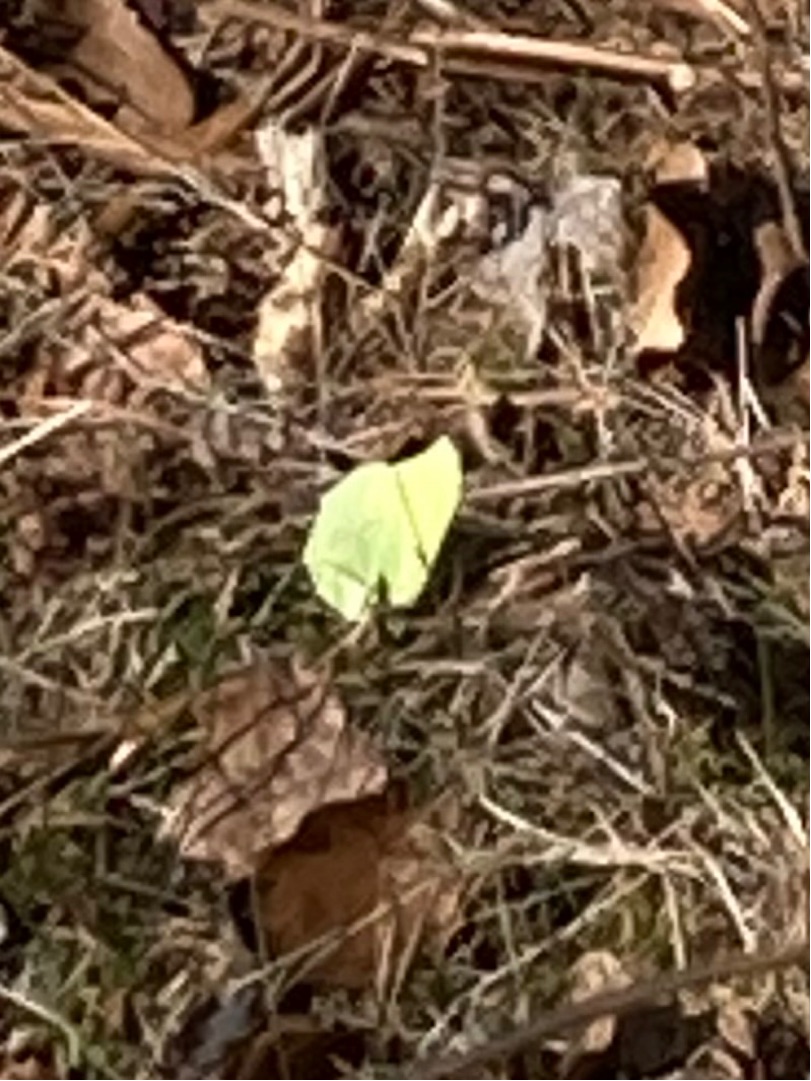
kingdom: Animalia
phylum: Arthropoda
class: Insecta
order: Lepidoptera
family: Pieridae
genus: Gonepteryx
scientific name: Gonepteryx rhamni
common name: Citronsommerfugl
